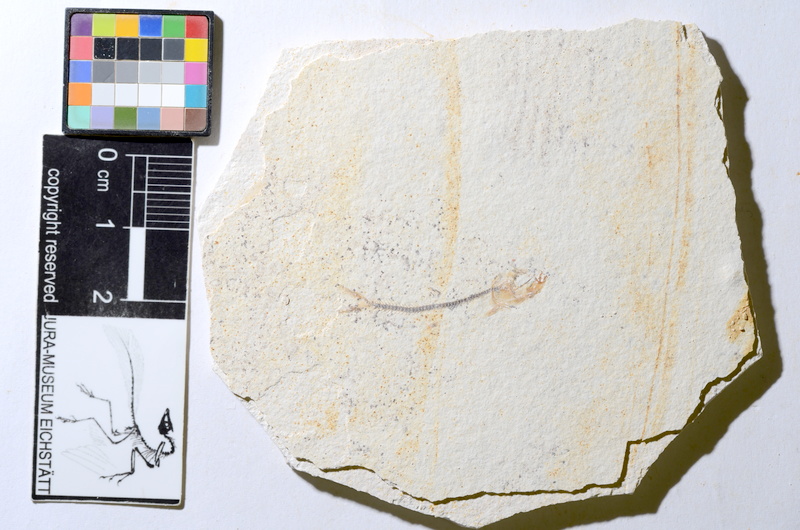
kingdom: Animalia
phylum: Chordata
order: Salmoniformes
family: Orthogonikleithridae
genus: Orthogonikleithrus
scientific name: Orthogonikleithrus hoelli
